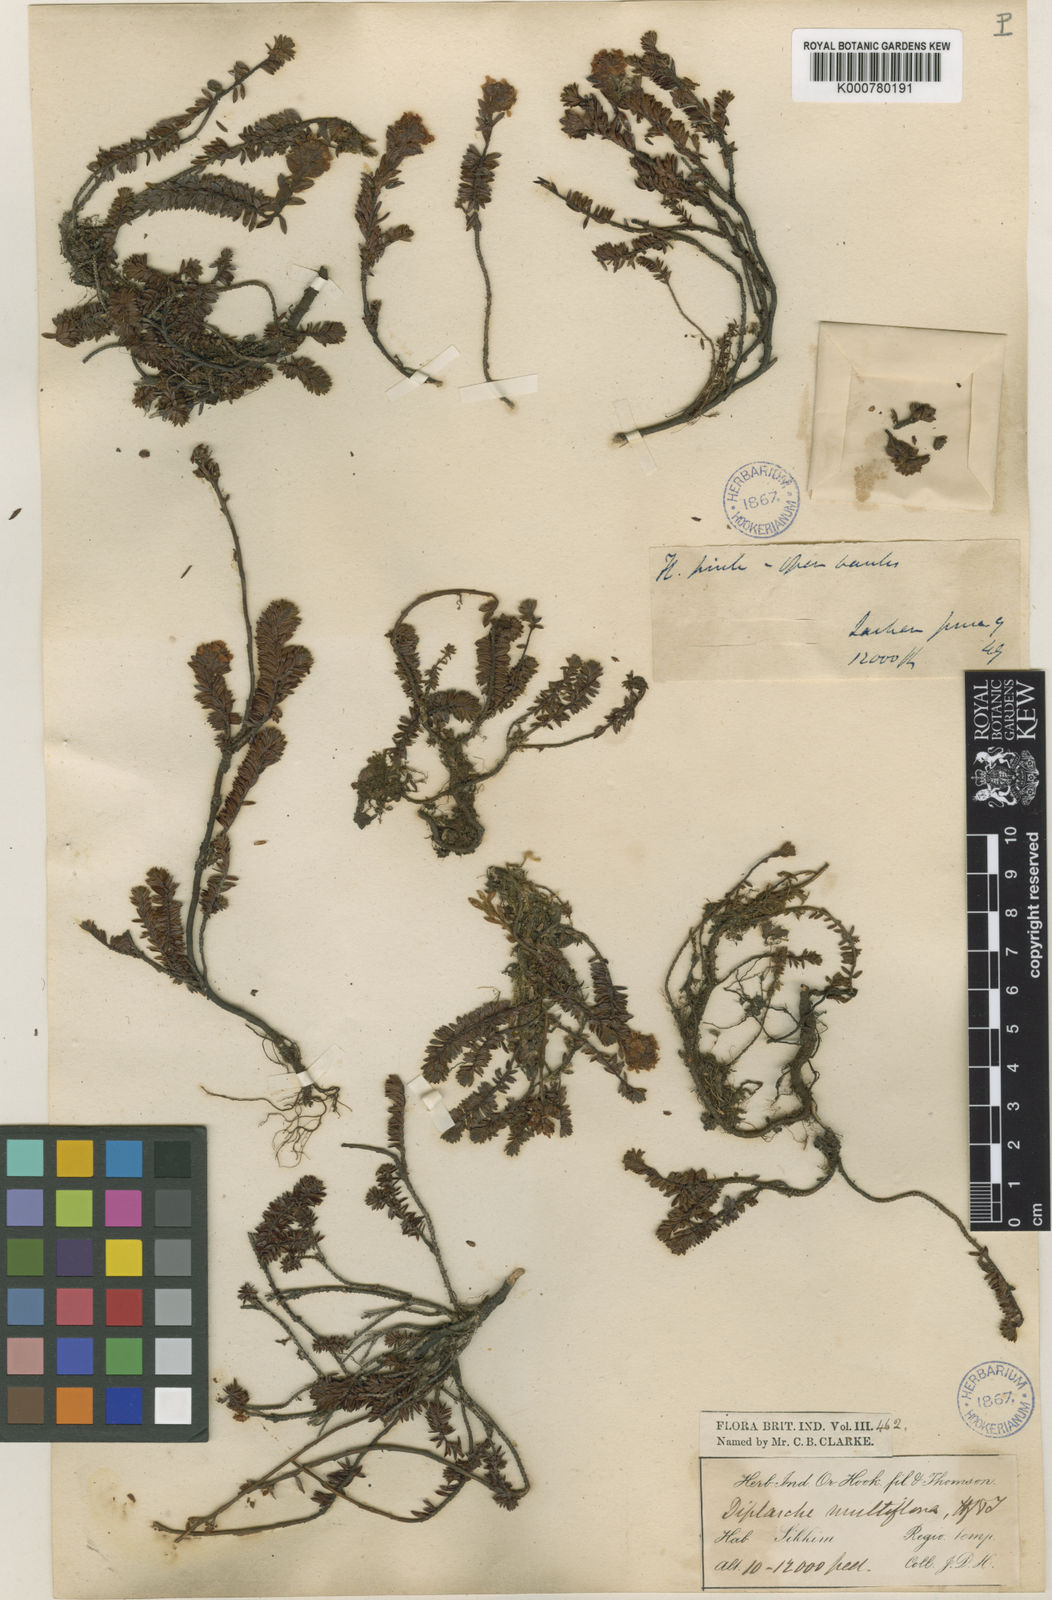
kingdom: Plantae
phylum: Tracheophyta
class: Magnoliopsida
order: Ericales
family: Ericaceae
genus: Rhododendron
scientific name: Rhododendron chamberlainii
